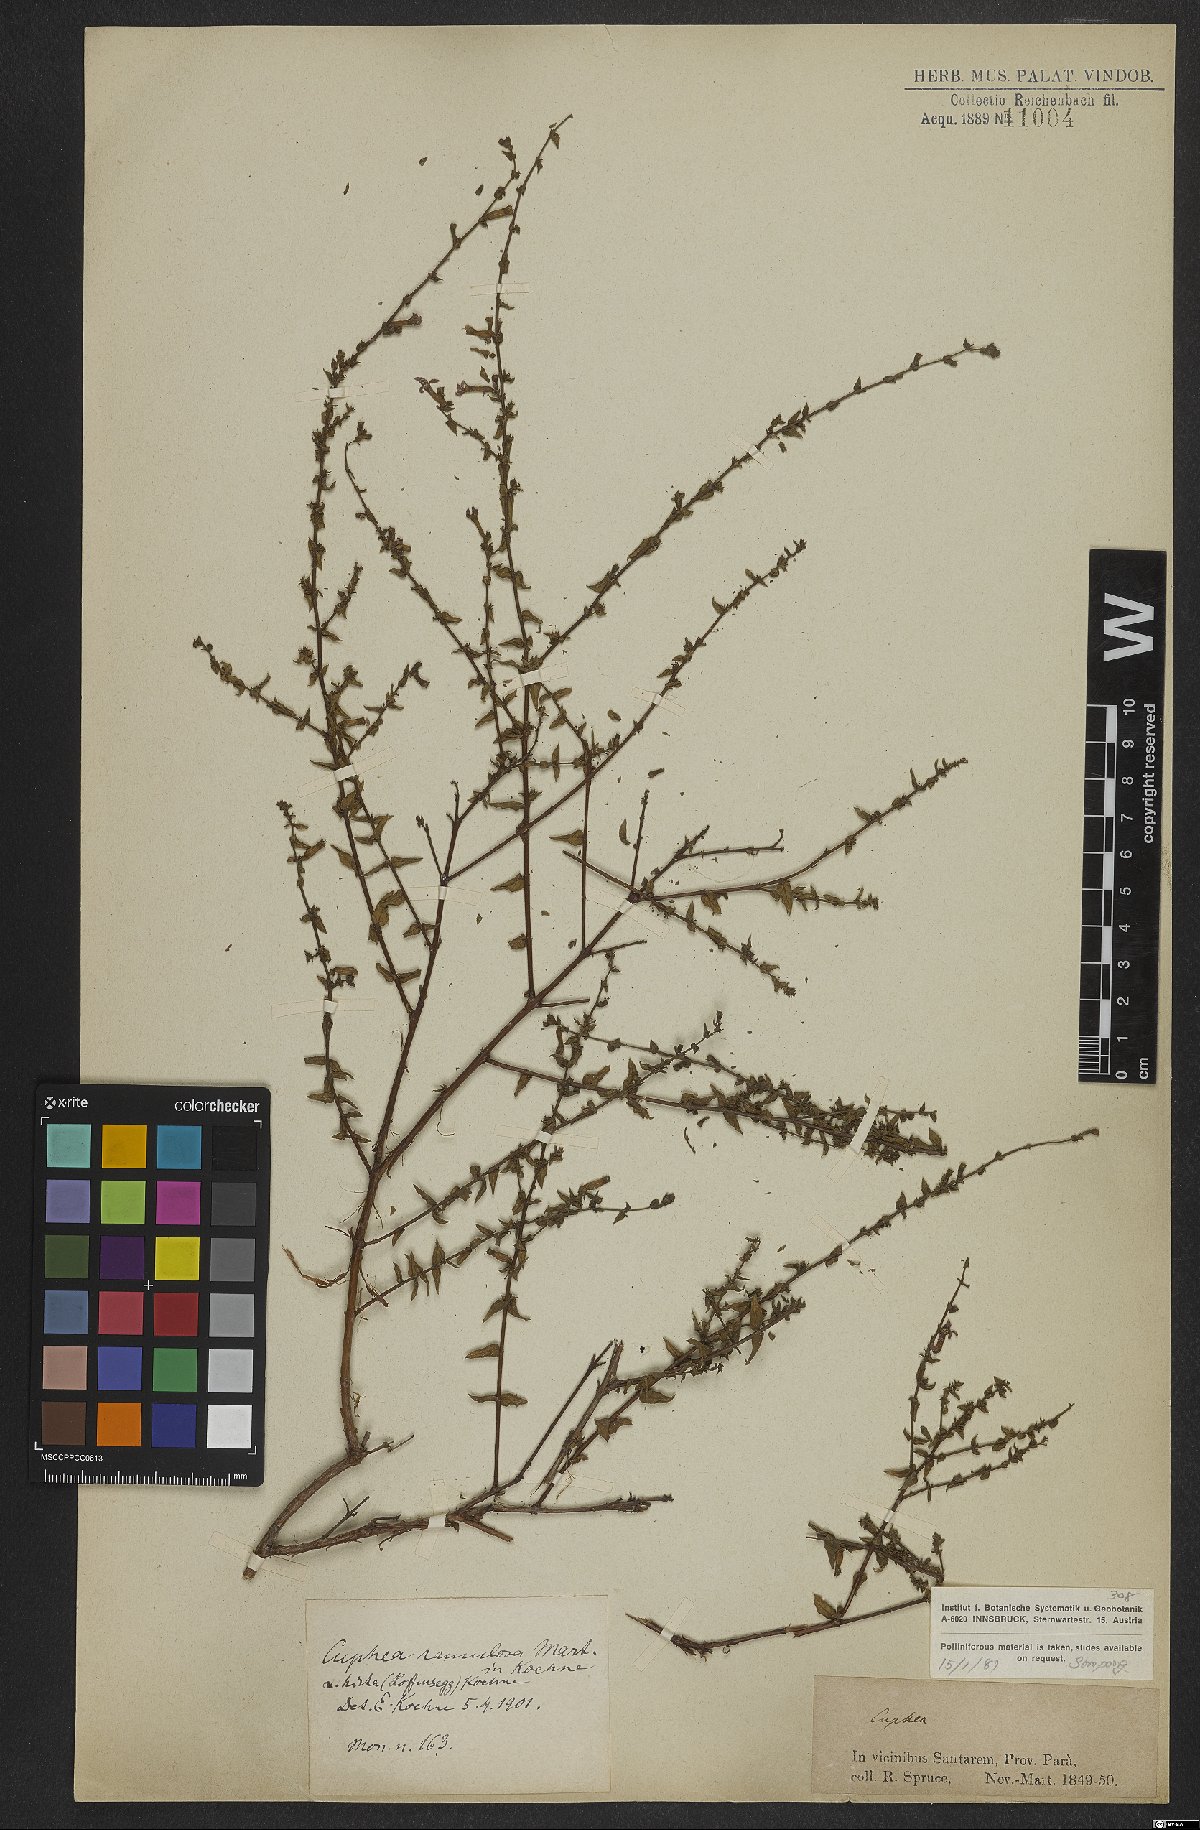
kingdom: Plantae
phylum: Tracheophyta
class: Magnoliopsida
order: Myrtales
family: Lythraceae
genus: Cuphea
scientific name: Cuphea antisyphilitica
